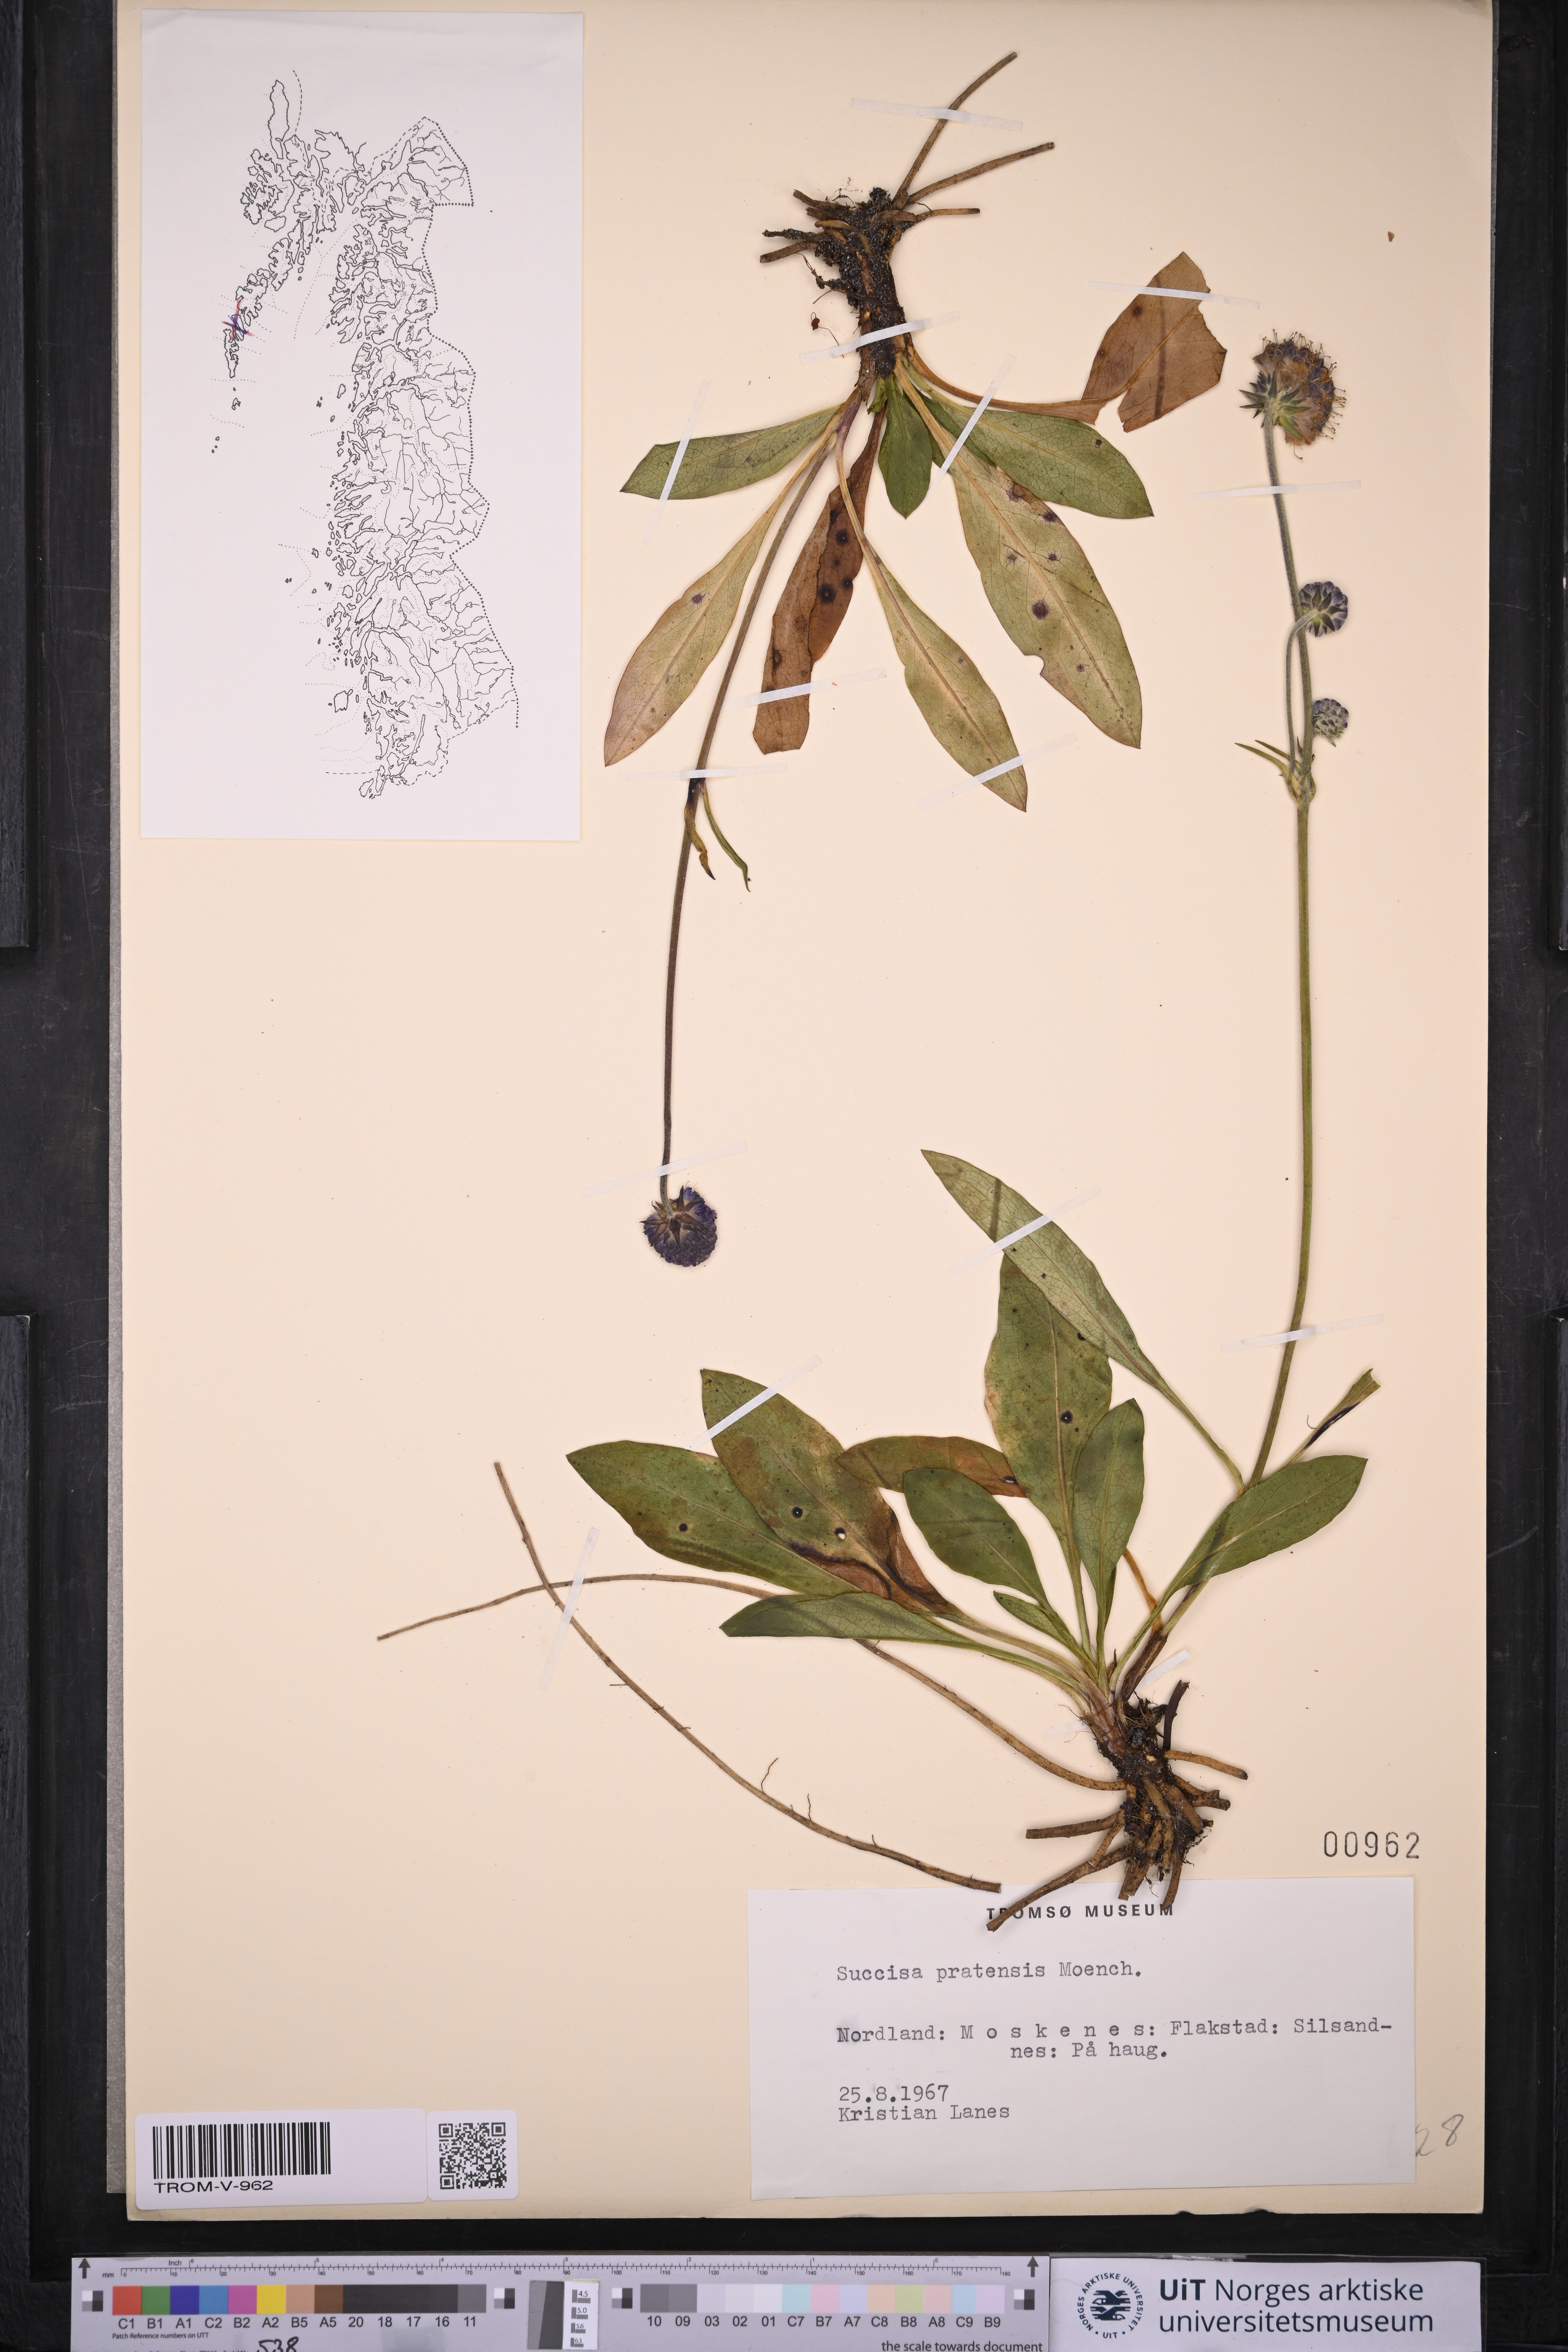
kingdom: Plantae
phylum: Tracheophyta
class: Magnoliopsida
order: Dipsacales
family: Caprifoliaceae
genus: Succisa
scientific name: Succisa pratensis
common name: Devil's-bit
